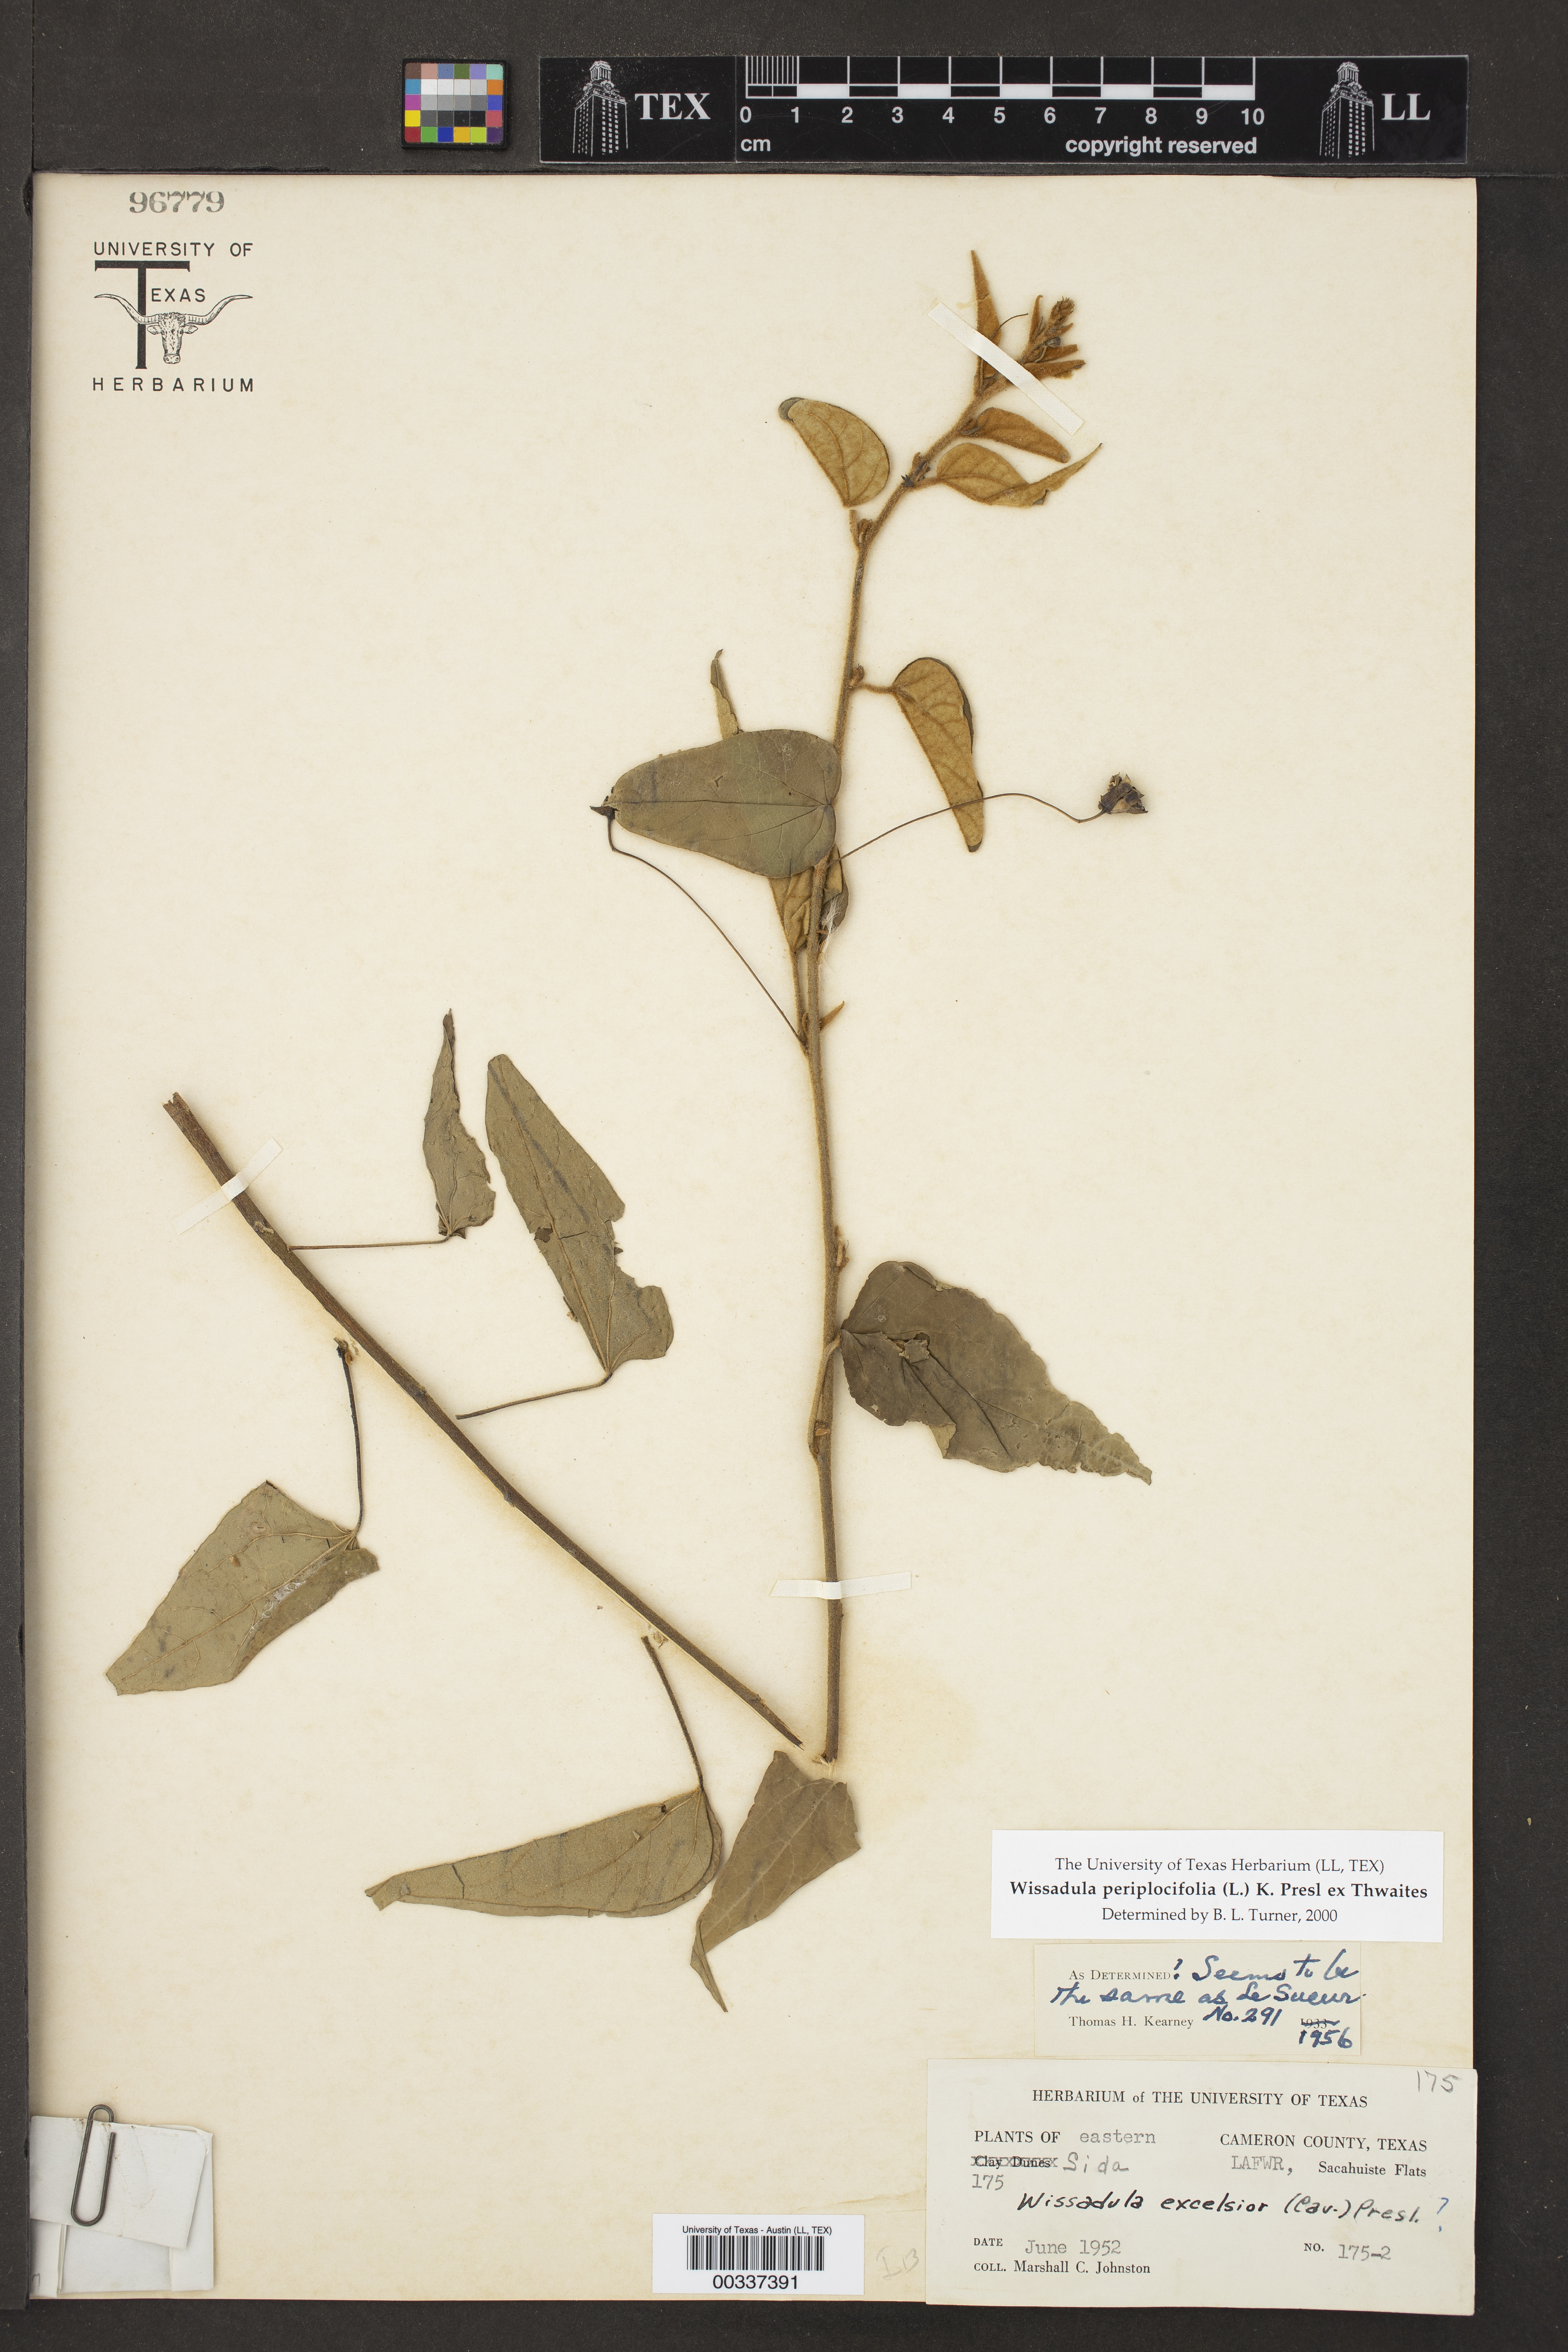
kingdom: Plantae
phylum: Tracheophyta
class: Magnoliopsida
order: Malvales
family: Malvaceae
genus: Wissadula
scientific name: Wissadula periplocifolia
